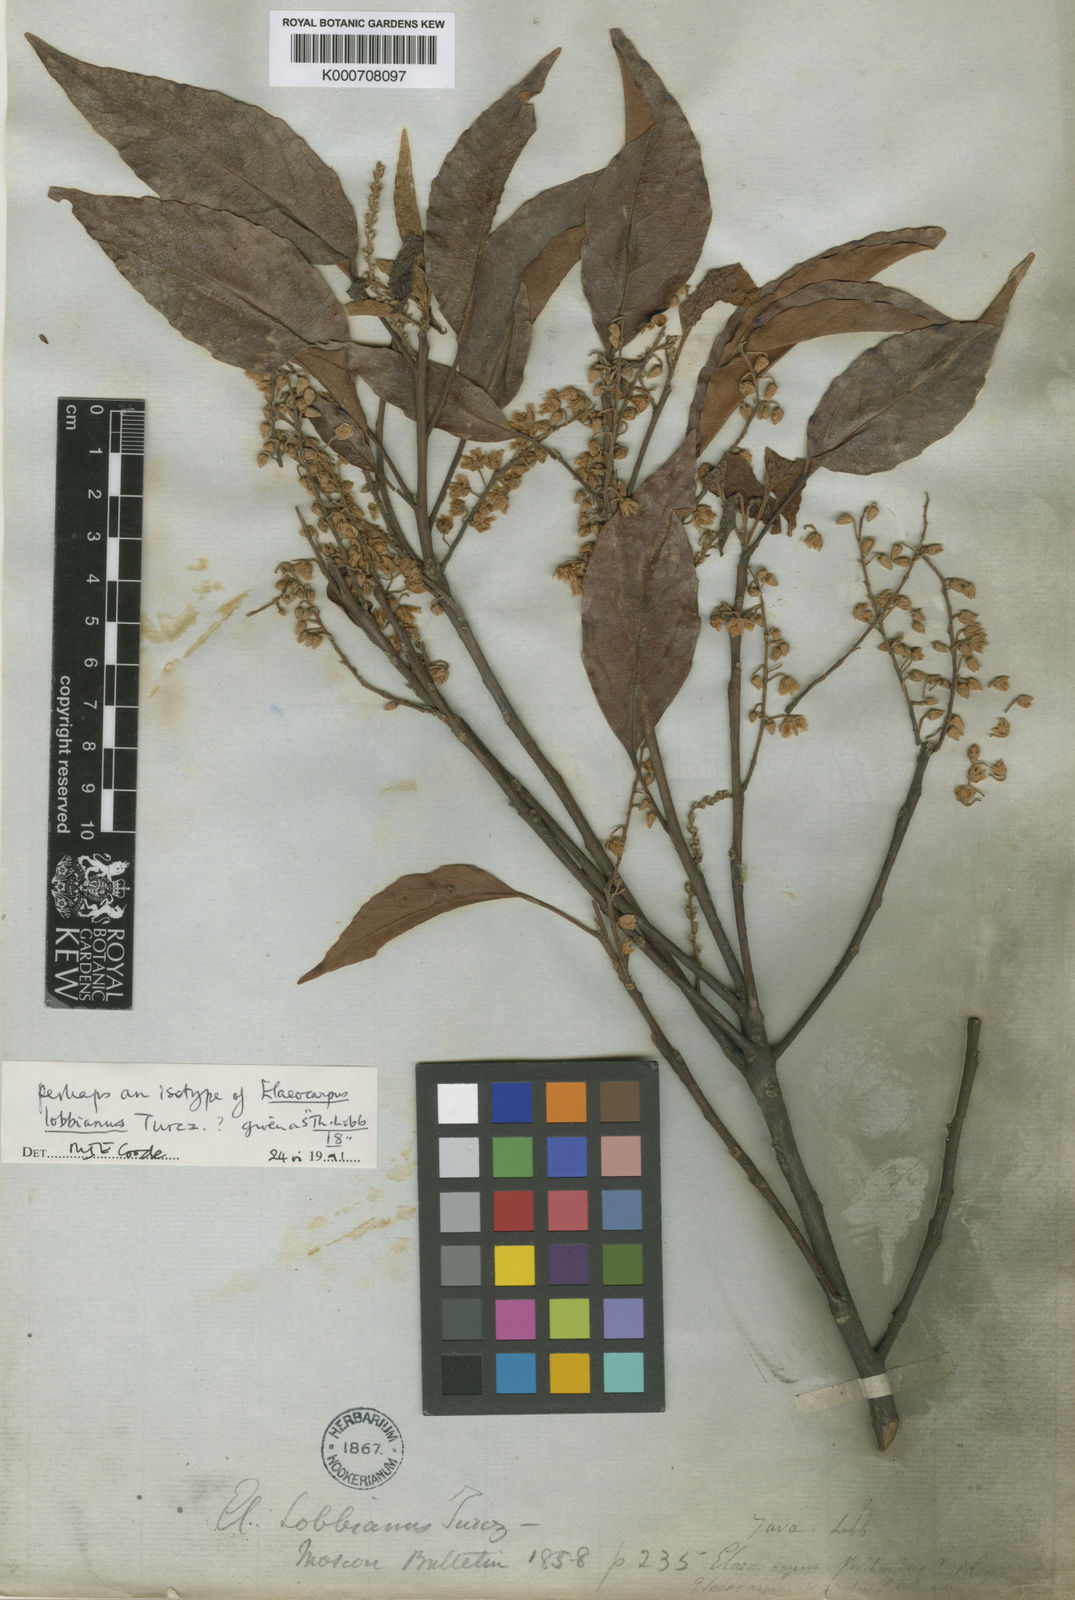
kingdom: Plantae
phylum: Tracheophyta
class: Magnoliopsida
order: Oxalidales
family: Elaeocarpaceae
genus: Elaeocarpus
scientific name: Elaeocarpus floribundus
